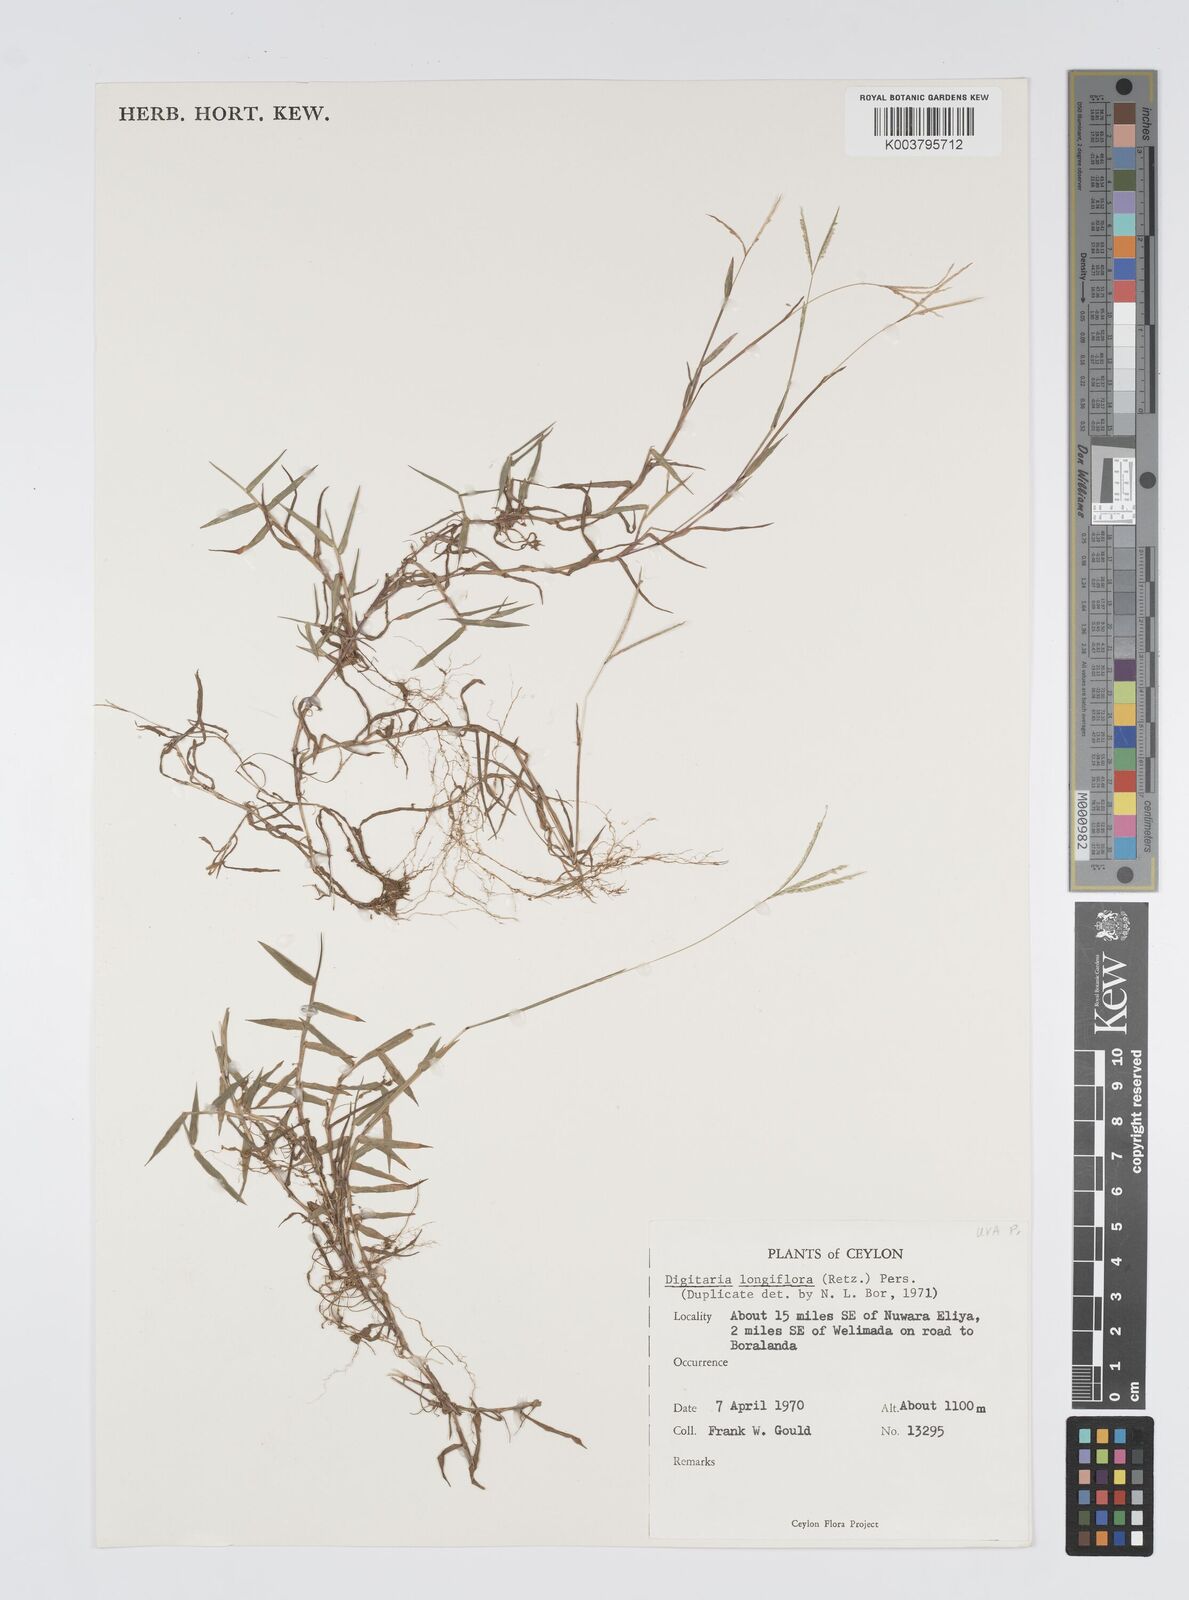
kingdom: Plantae
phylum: Tracheophyta
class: Liliopsida
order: Poales
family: Poaceae
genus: Digitaria
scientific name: Digitaria longiflora
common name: Wire crabgrass
